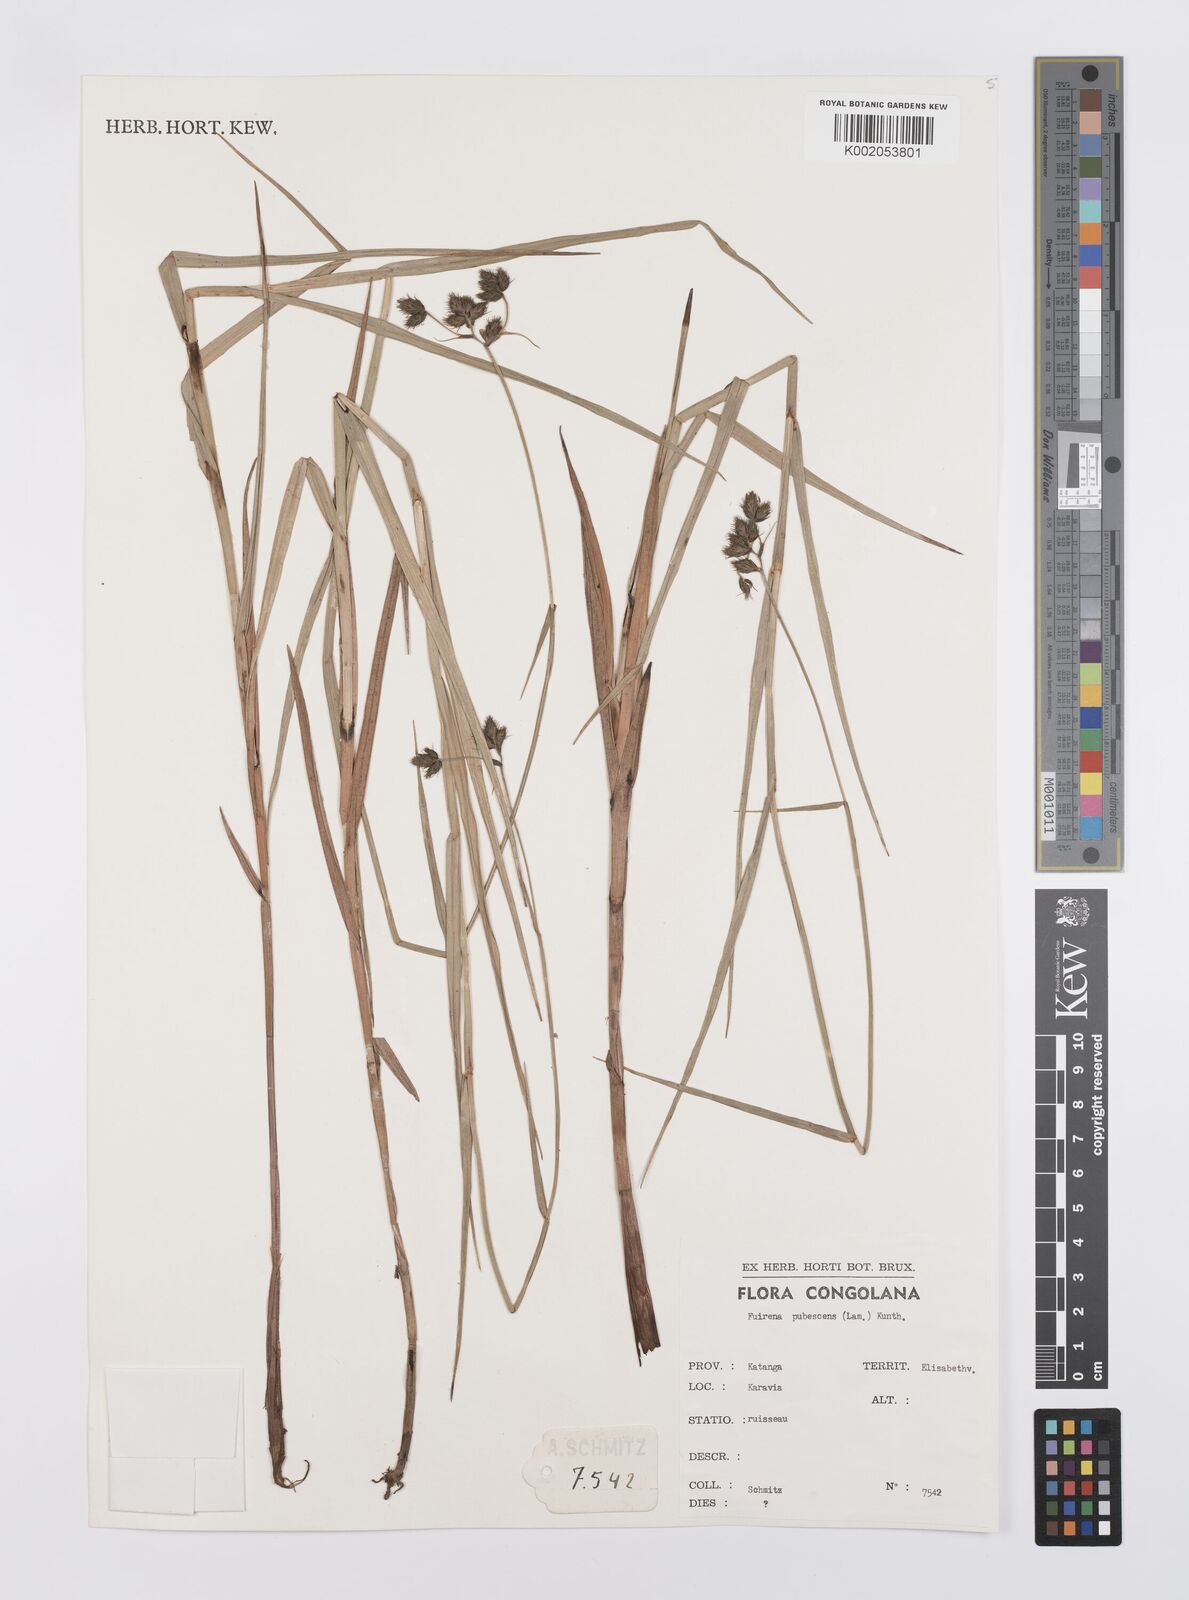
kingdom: Plantae
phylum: Tracheophyta
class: Liliopsida
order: Poales
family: Cyperaceae
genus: Fuirena
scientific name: Fuirena pubescens
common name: Hairy sedge
